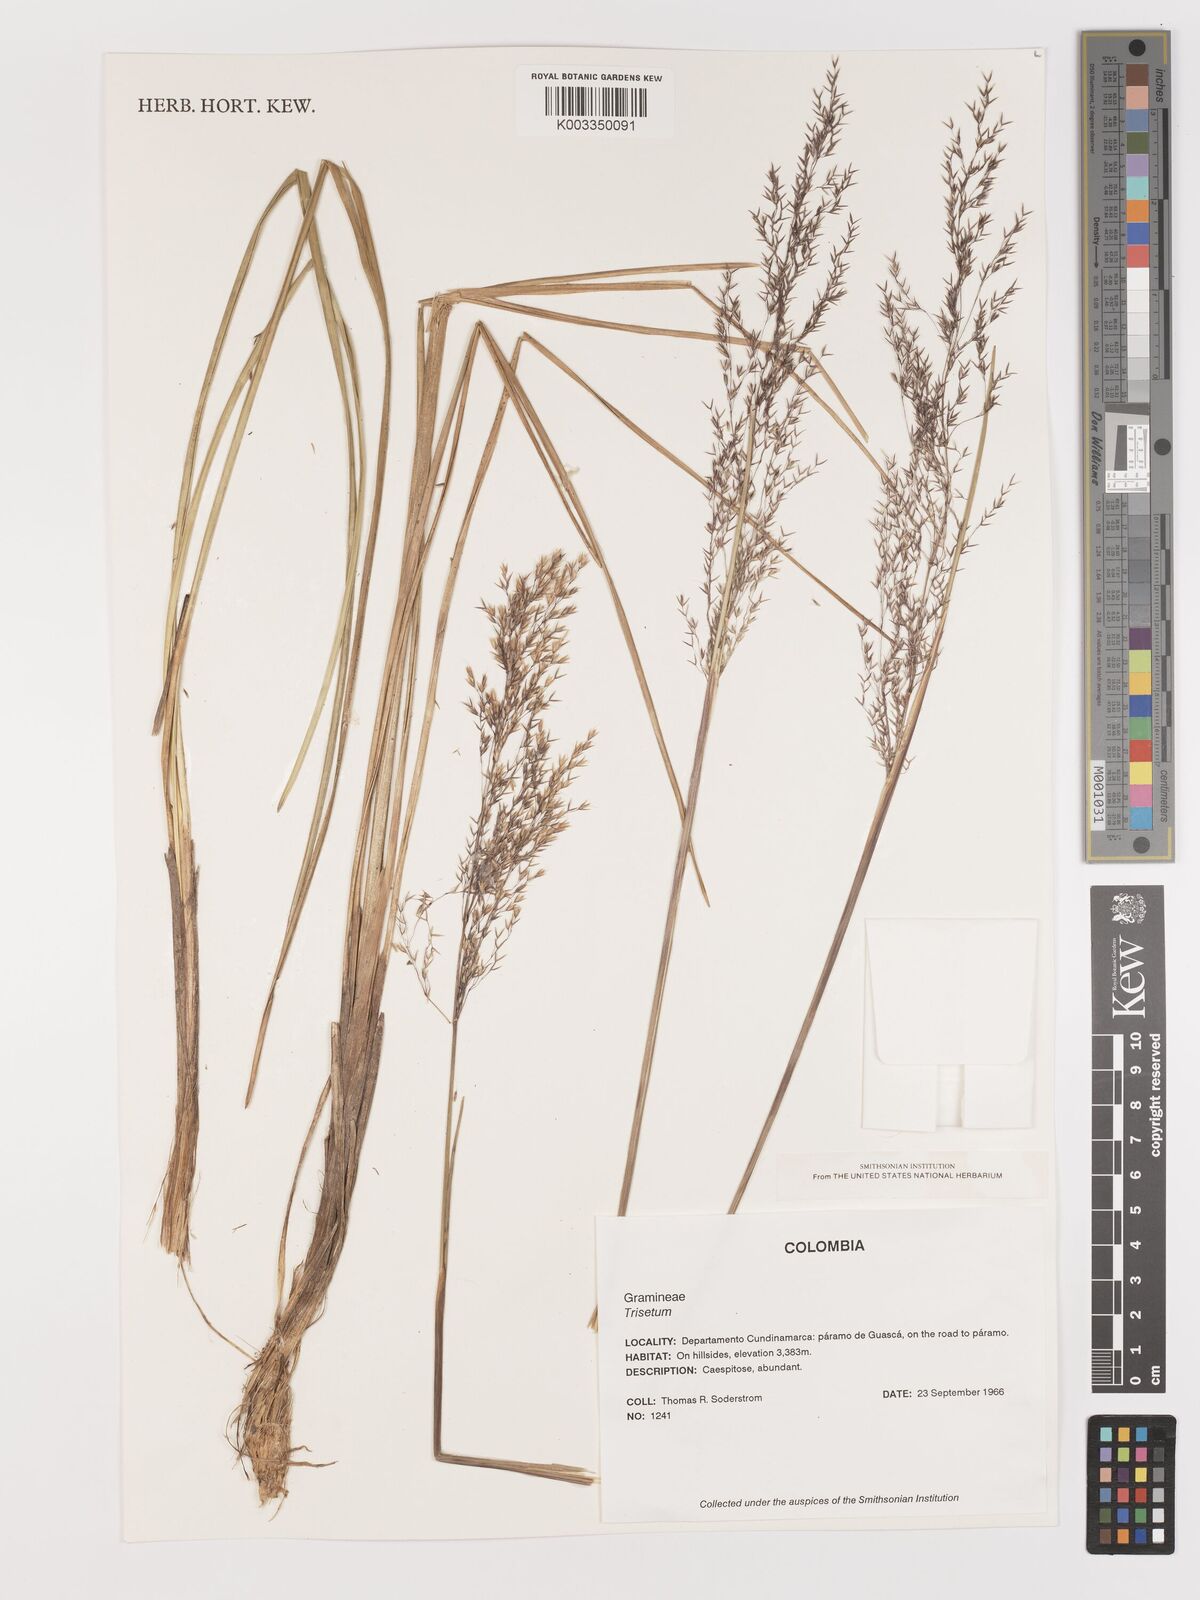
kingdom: Plantae
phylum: Tracheophyta
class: Liliopsida
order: Poales
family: Poaceae
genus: Agrostis
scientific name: Agrostis
